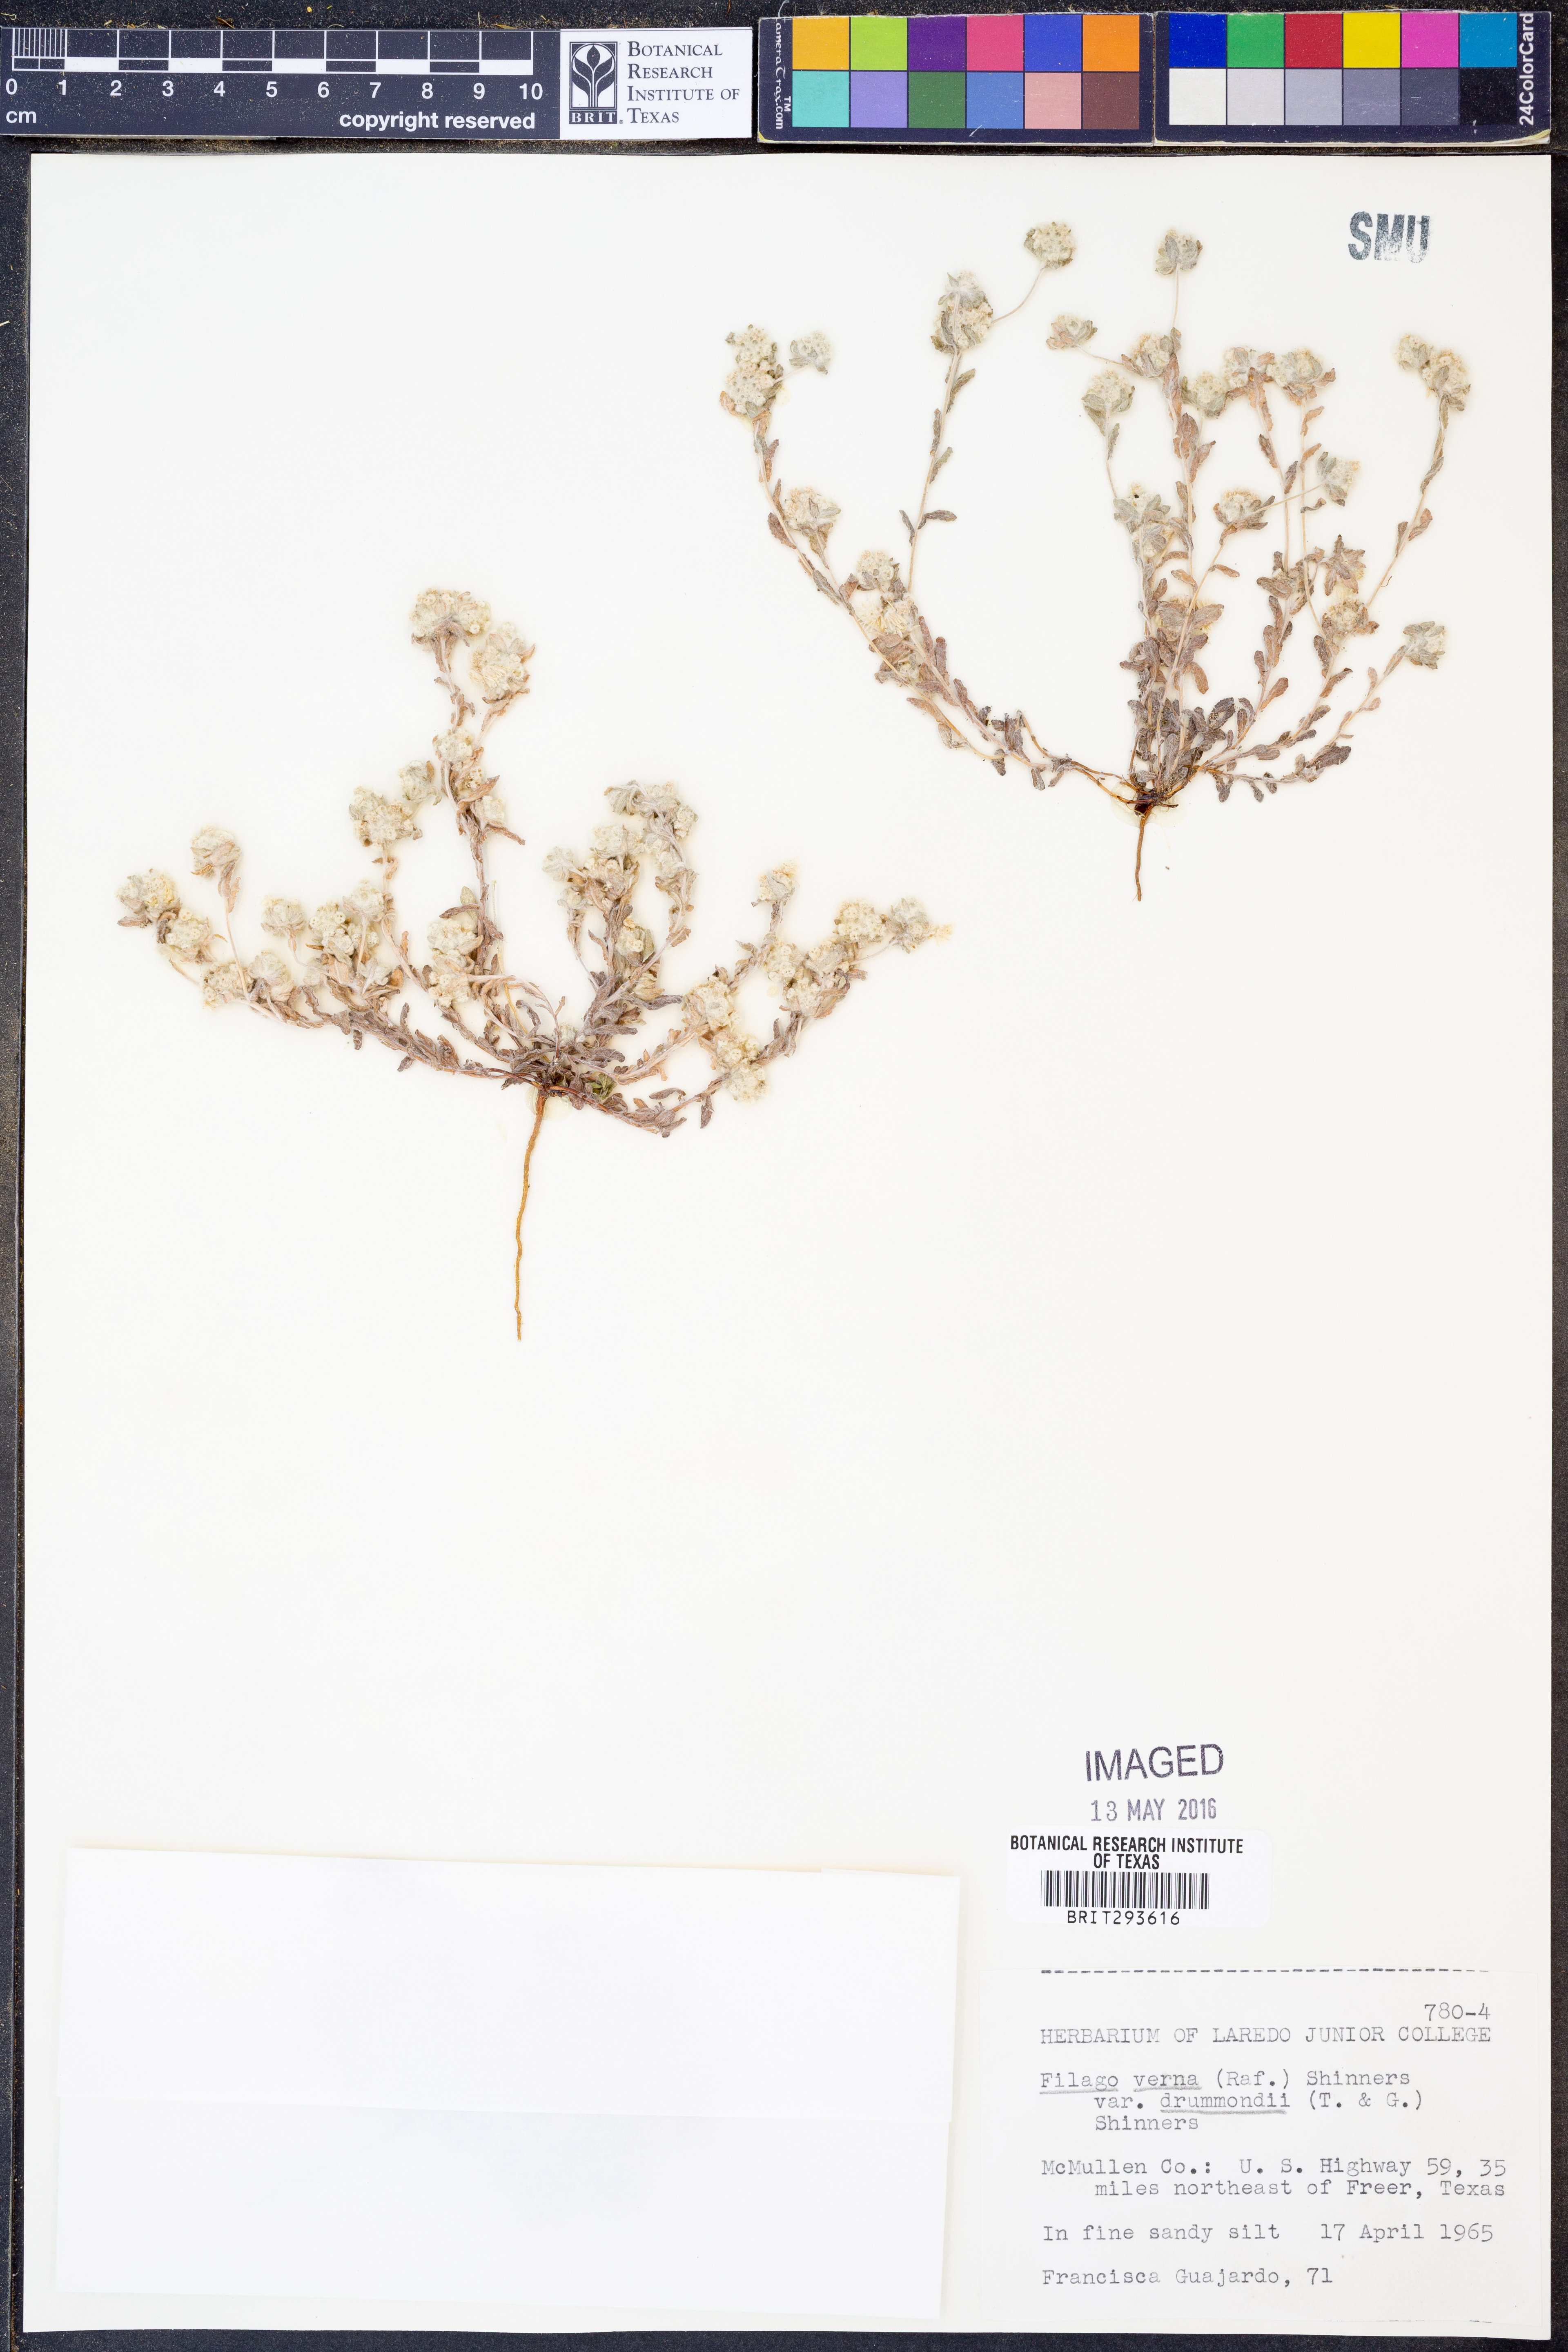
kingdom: Plantae
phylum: Tracheophyta
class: Magnoliopsida
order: Asterales
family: Asteraceae
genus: Diaperia
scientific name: Diaperia verna
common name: Many-stem rabbit-tobacco
